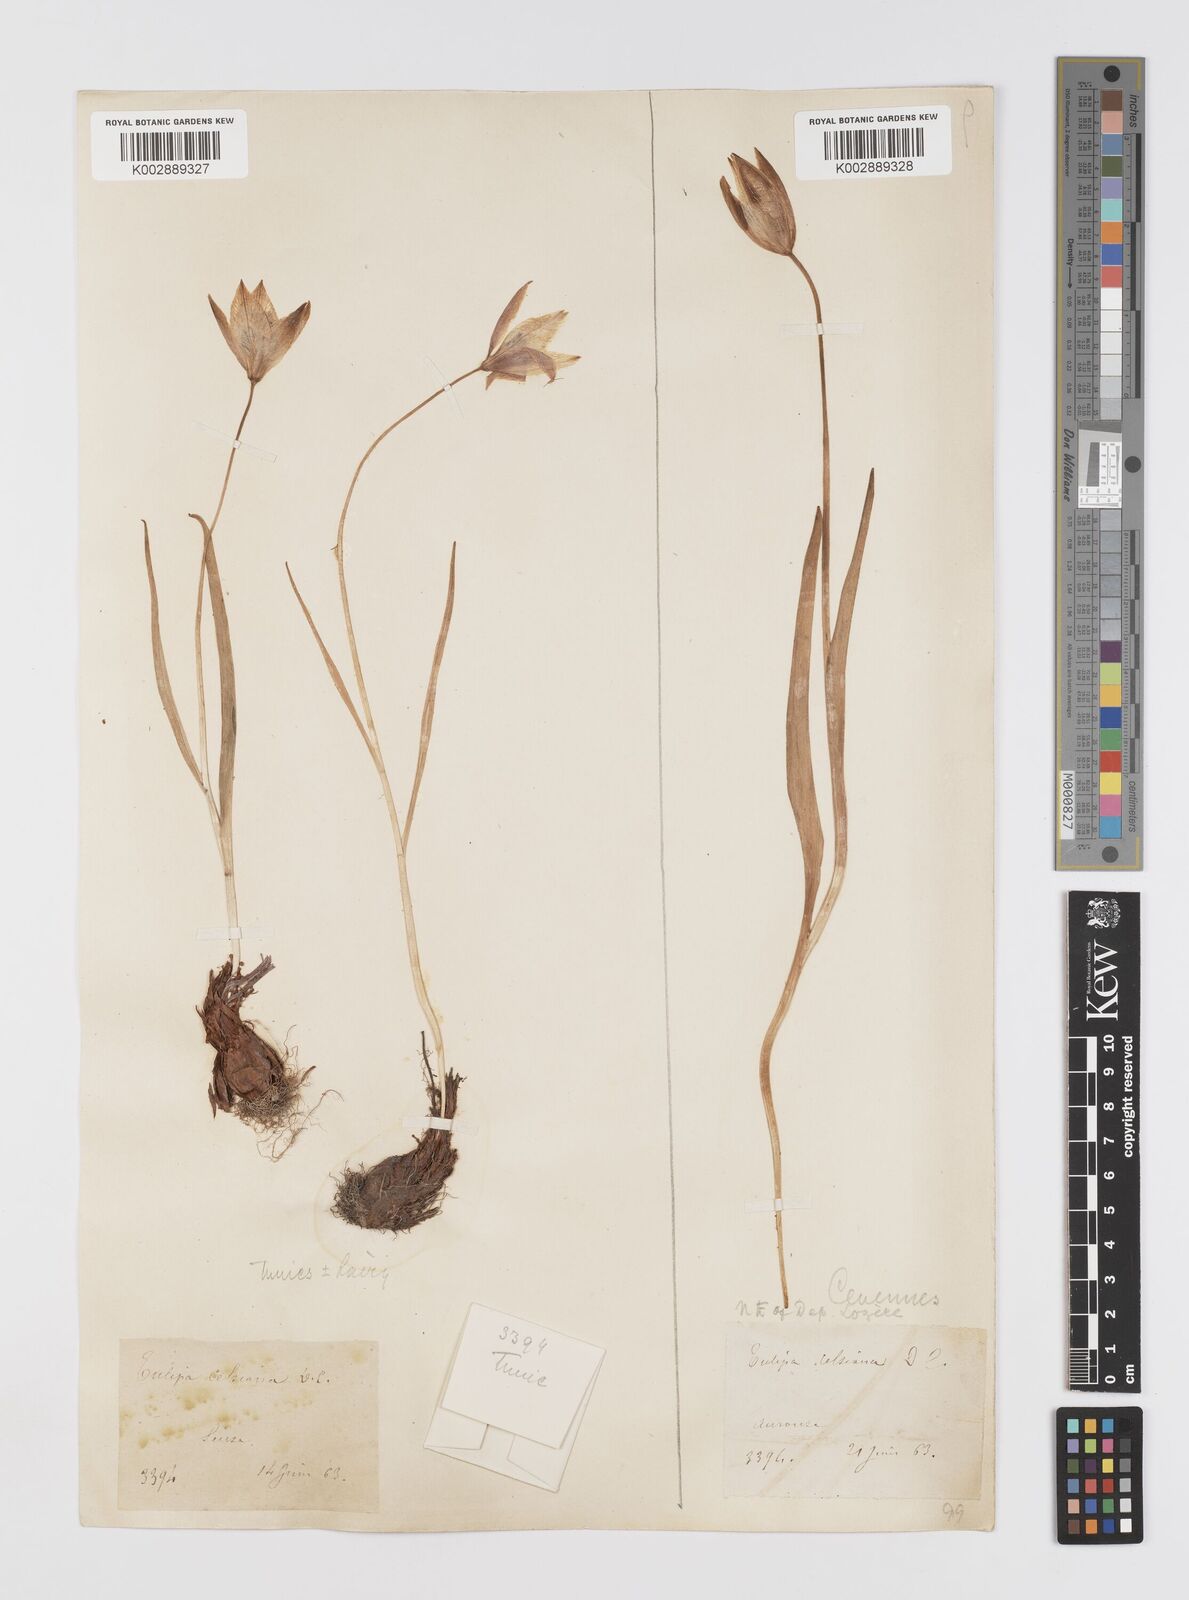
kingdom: Plantae
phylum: Tracheophyta
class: Liliopsida
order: Liliales
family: Liliaceae
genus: Tulipa
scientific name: Tulipa sylvestris
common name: Wild tulip
